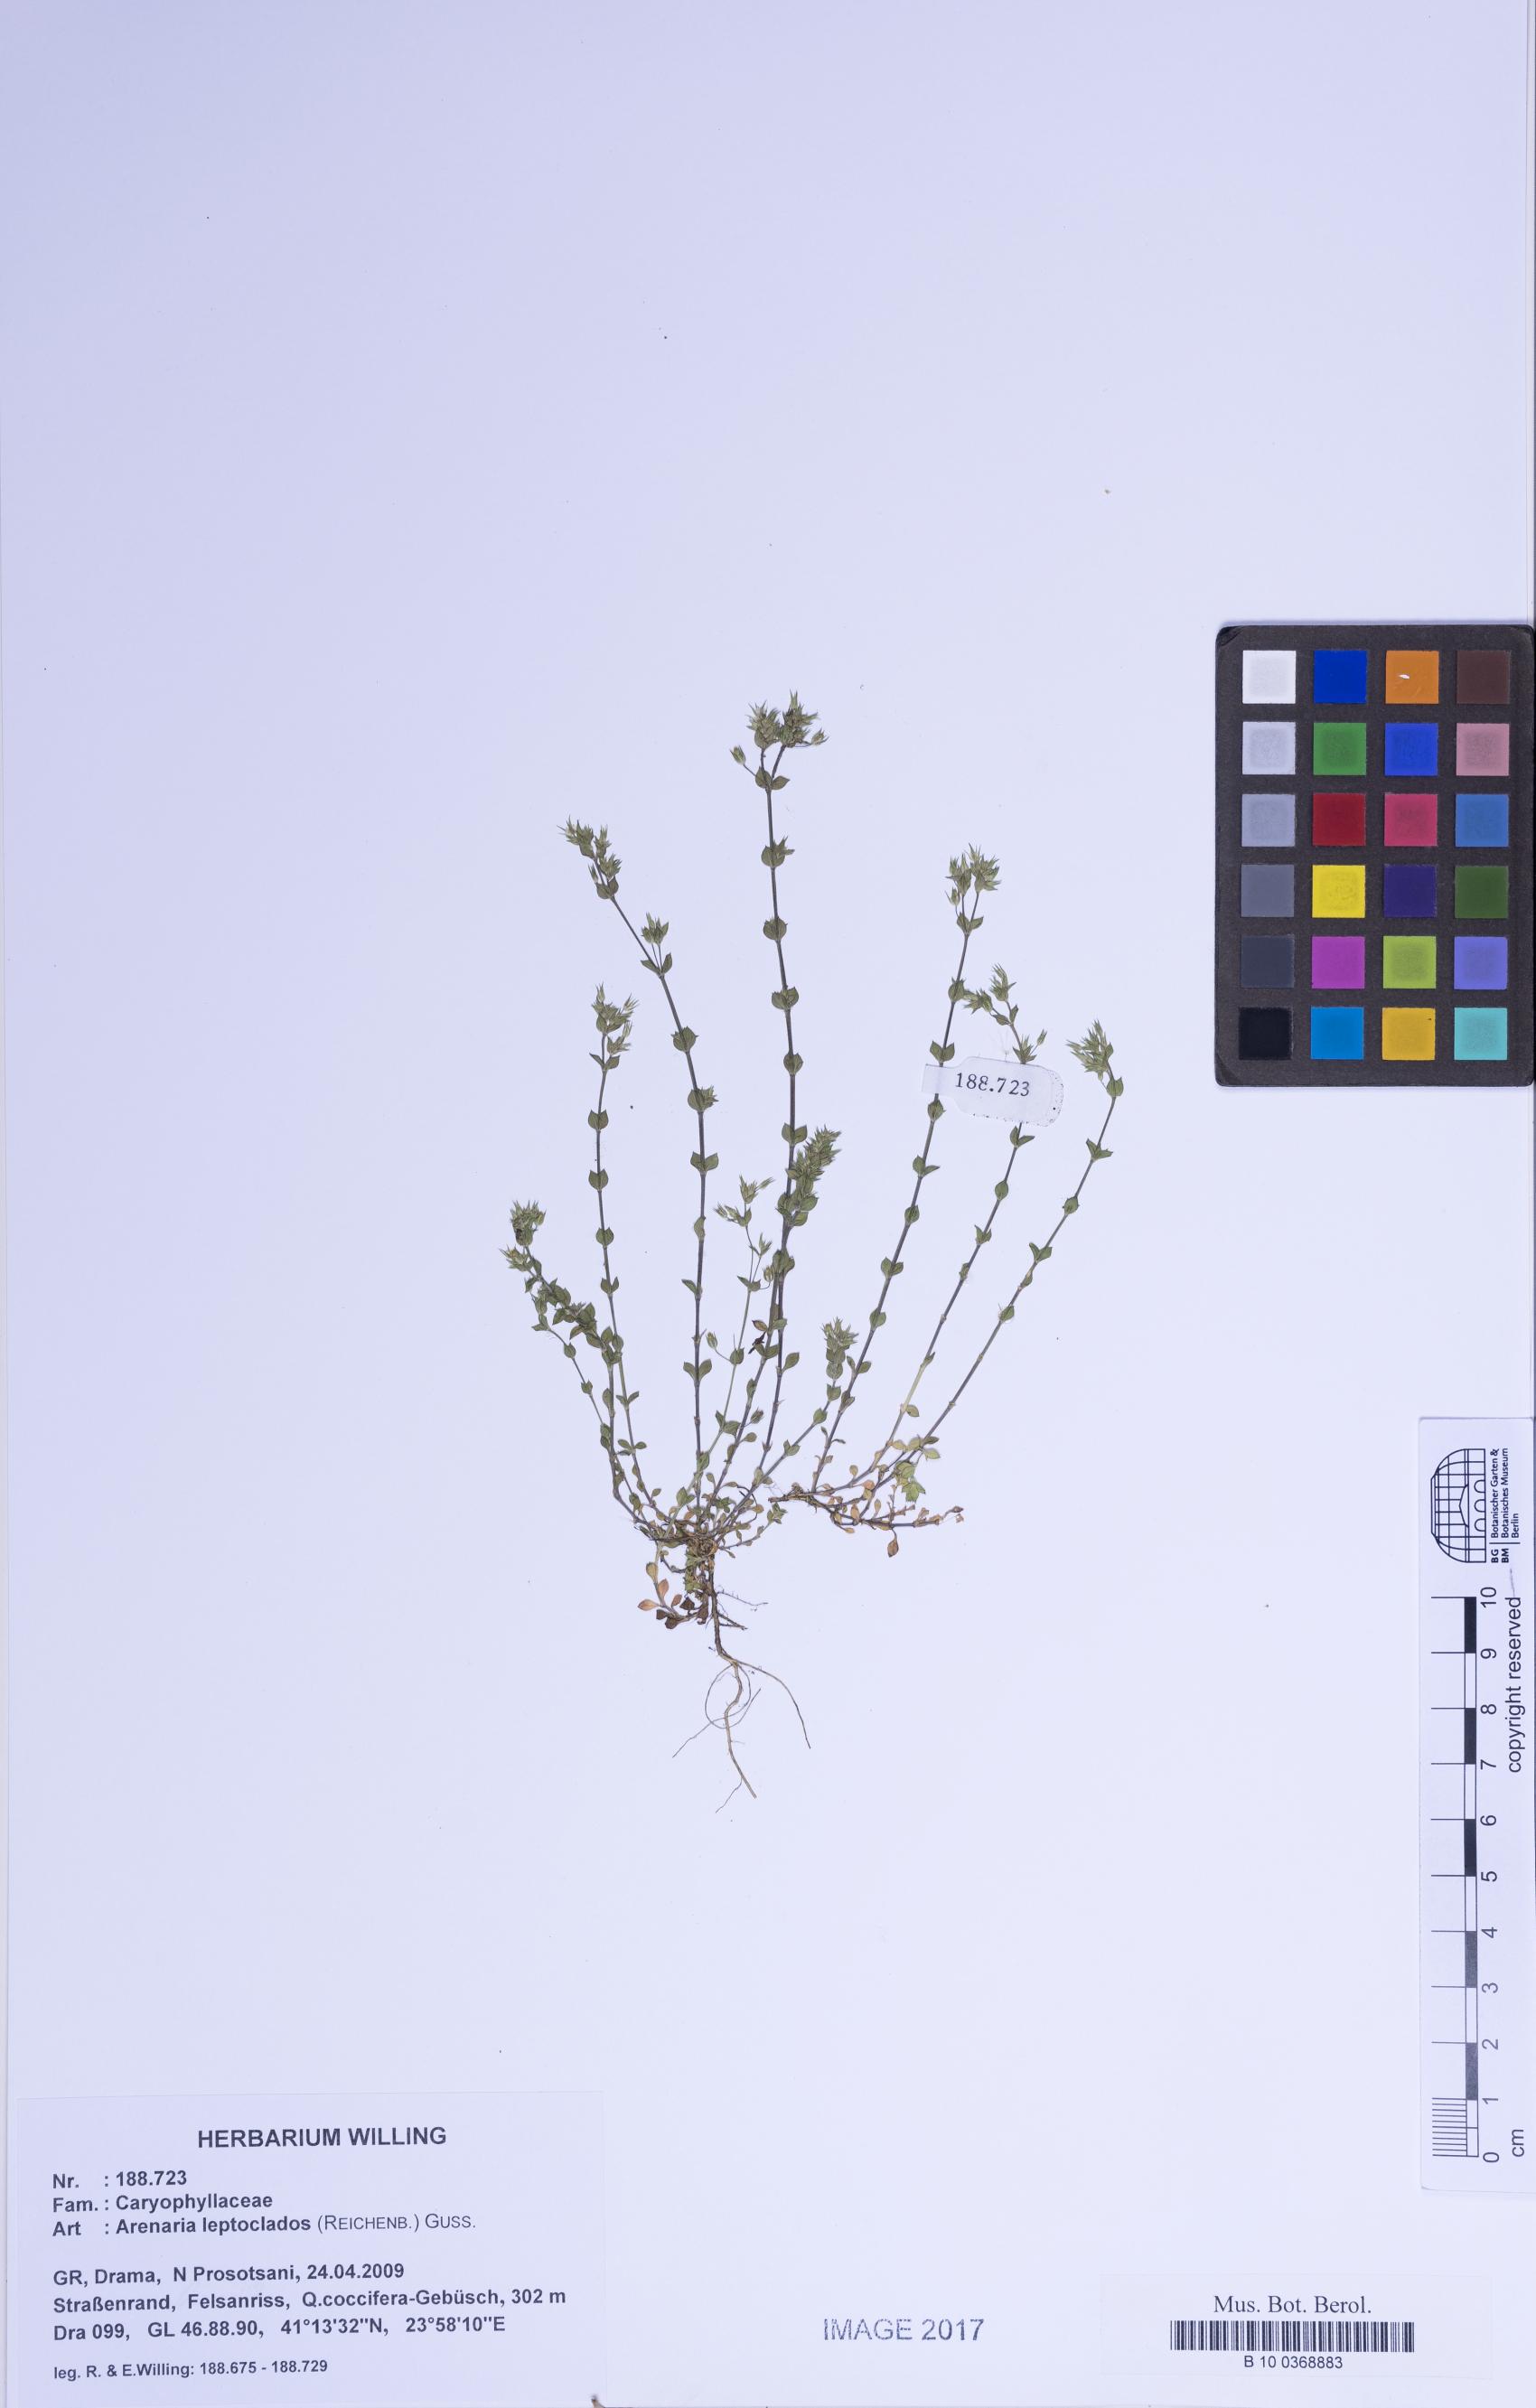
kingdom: Plantae
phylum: Tracheophyta
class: Magnoliopsida
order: Caryophyllales
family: Caryophyllaceae
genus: Arenaria
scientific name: Arenaria leptoclados
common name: Thyme-leaved sandwort
